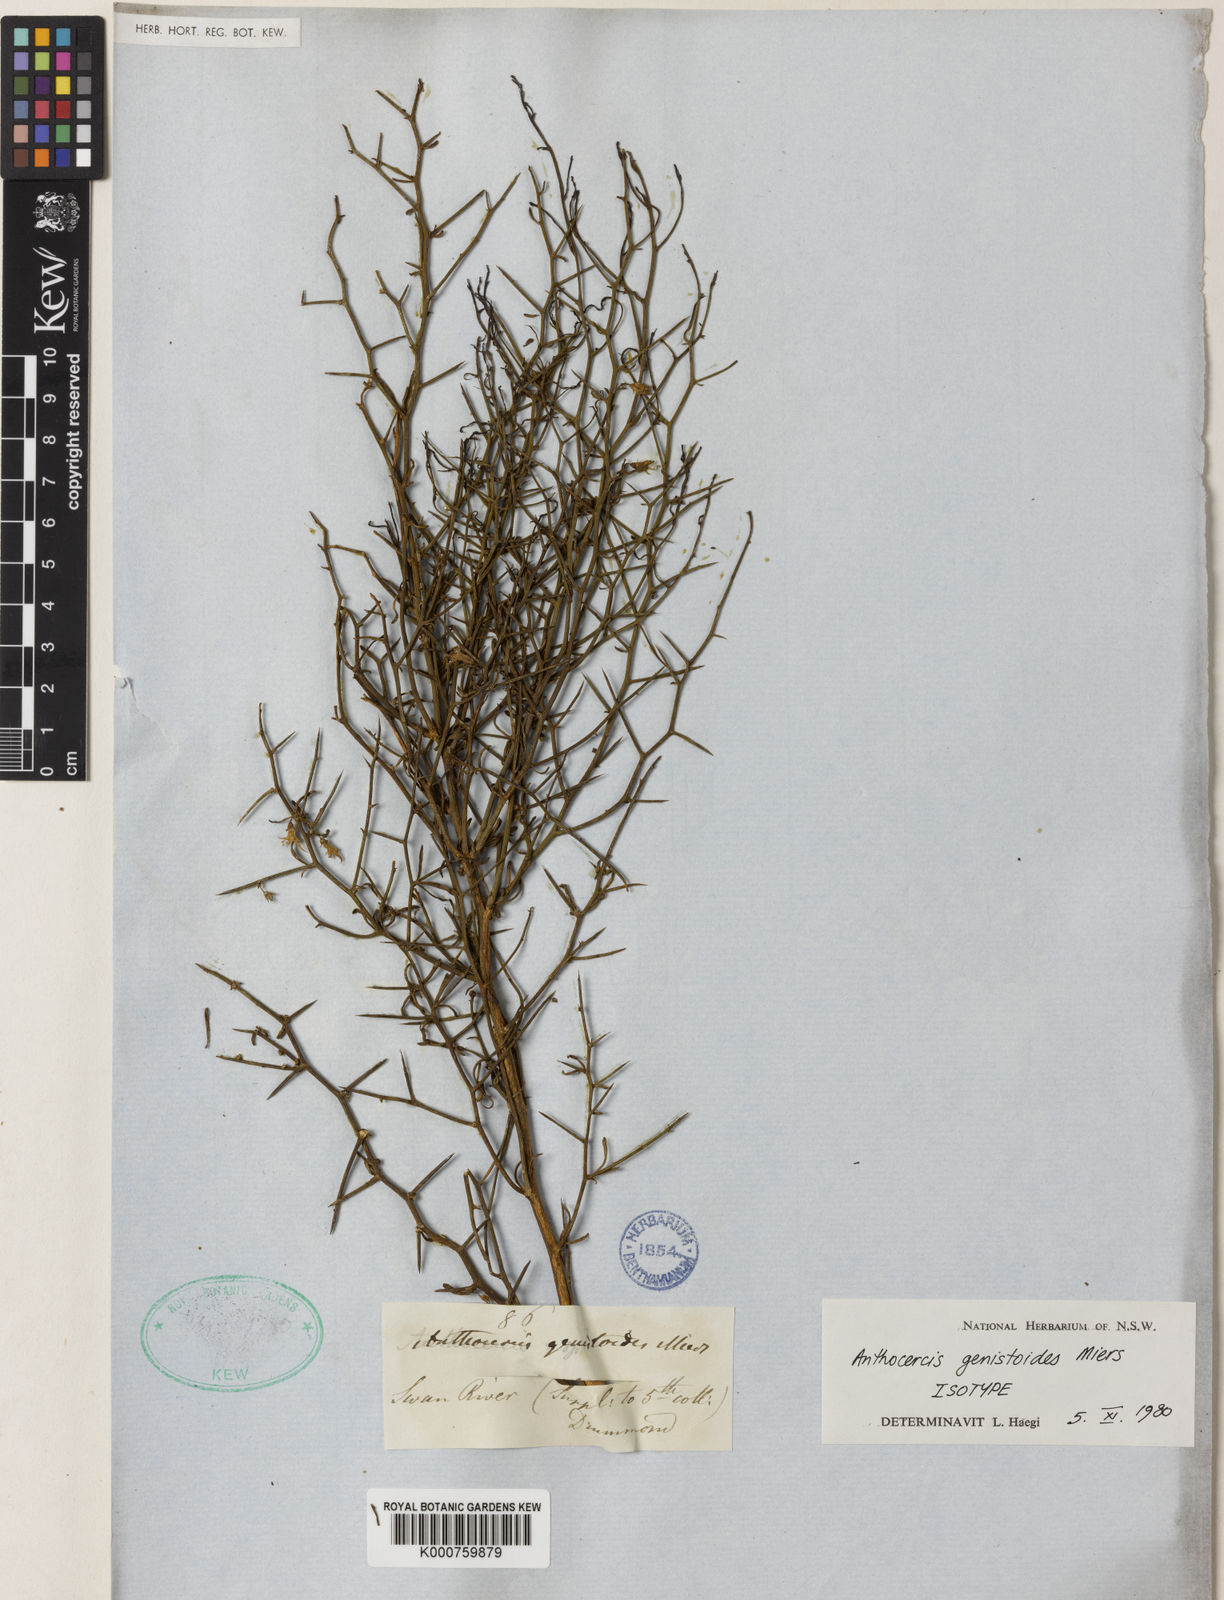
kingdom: Plantae
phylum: Tracheophyta
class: Magnoliopsida
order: Solanales
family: Solanaceae
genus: Anthocercis
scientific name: Anthocercis genistoides
